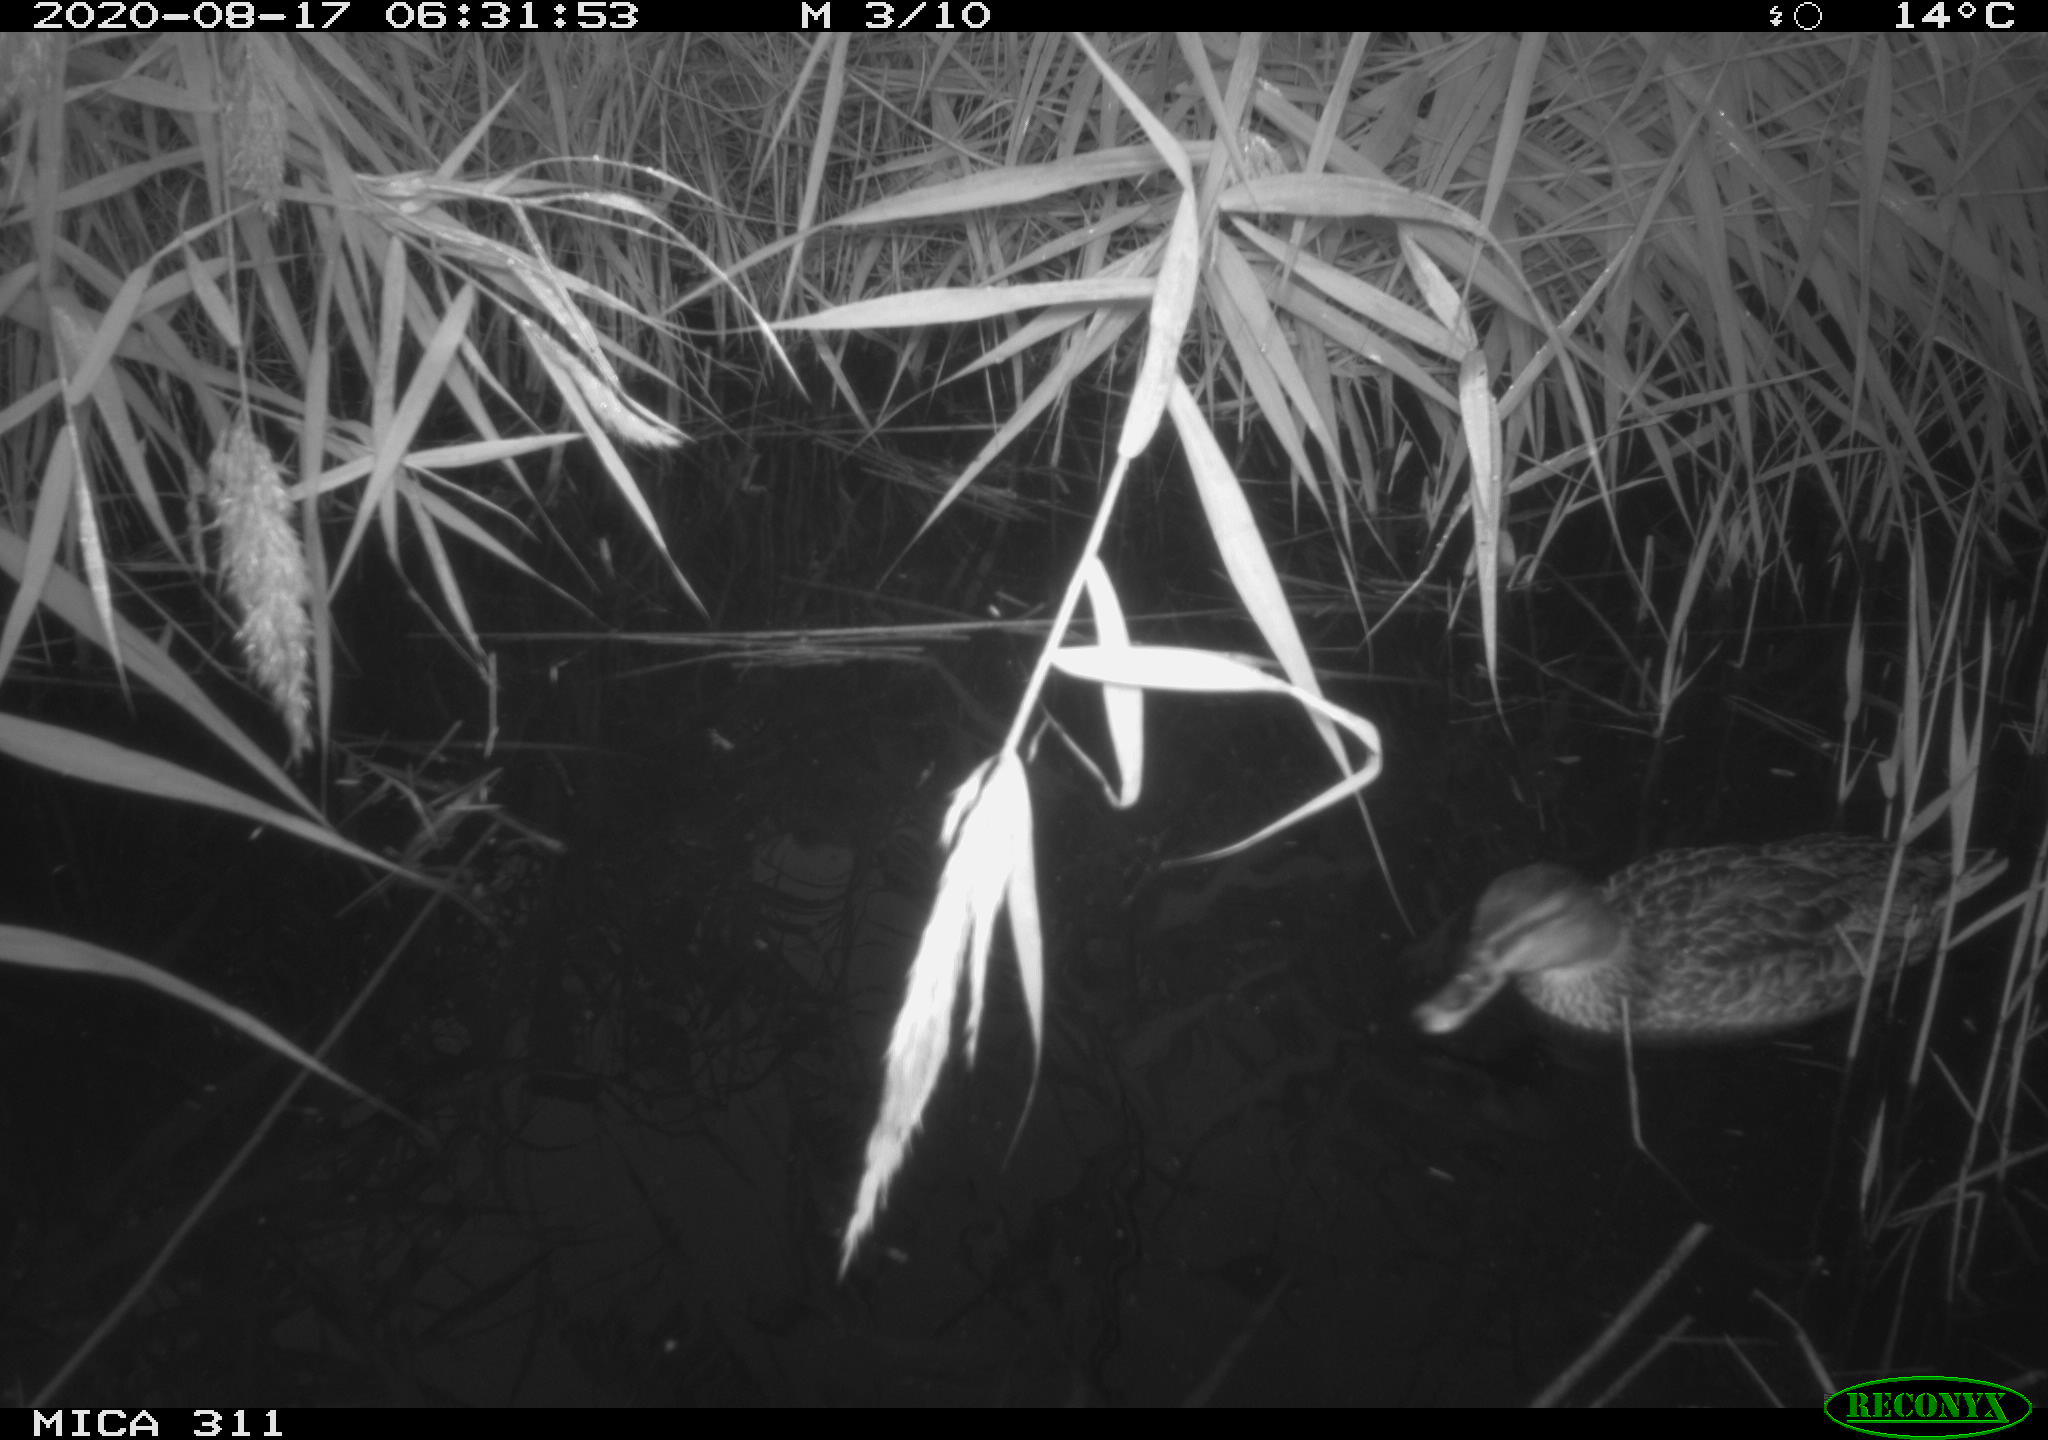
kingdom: Animalia
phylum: Chordata
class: Aves
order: Anseriformes
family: Anatidae
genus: Anas
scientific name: Anas platyrhynchos
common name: Mallard
